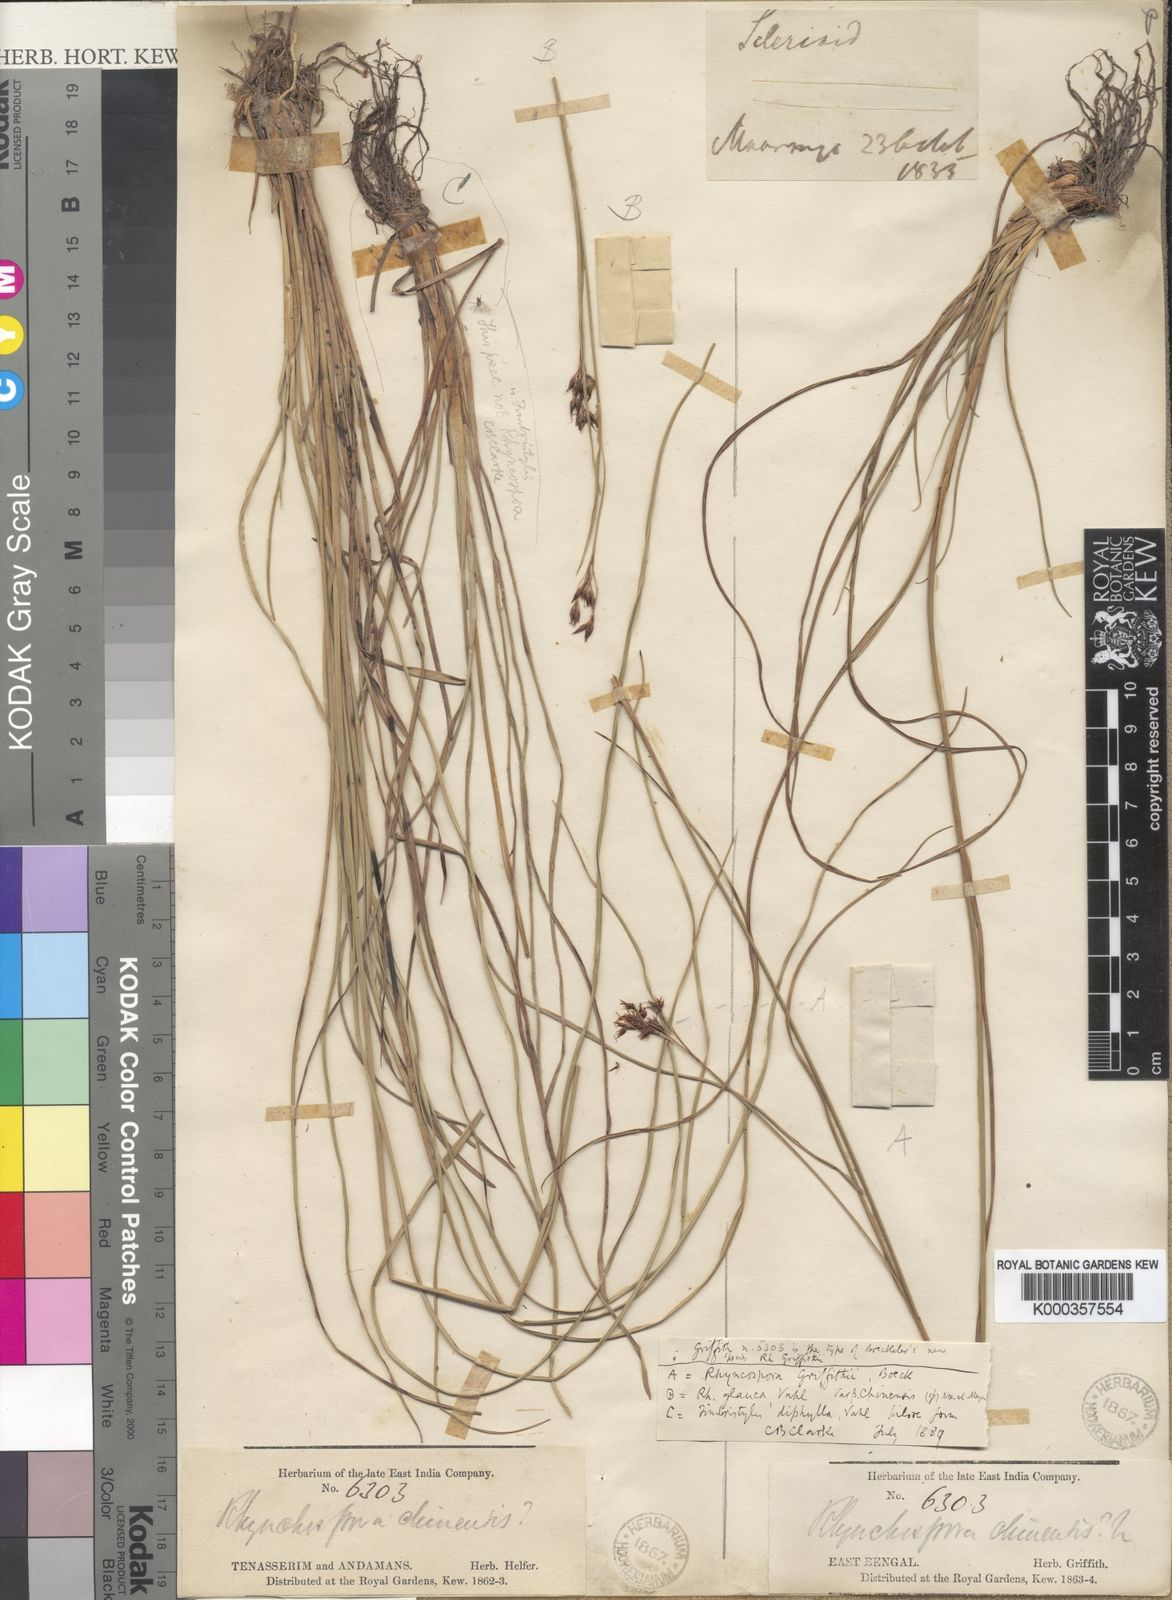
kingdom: Plantae
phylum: Tracheophyta
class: Liliopsida
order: Poales
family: Cyperaceae
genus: Rhynchospora
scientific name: Rhynchospora brownii
